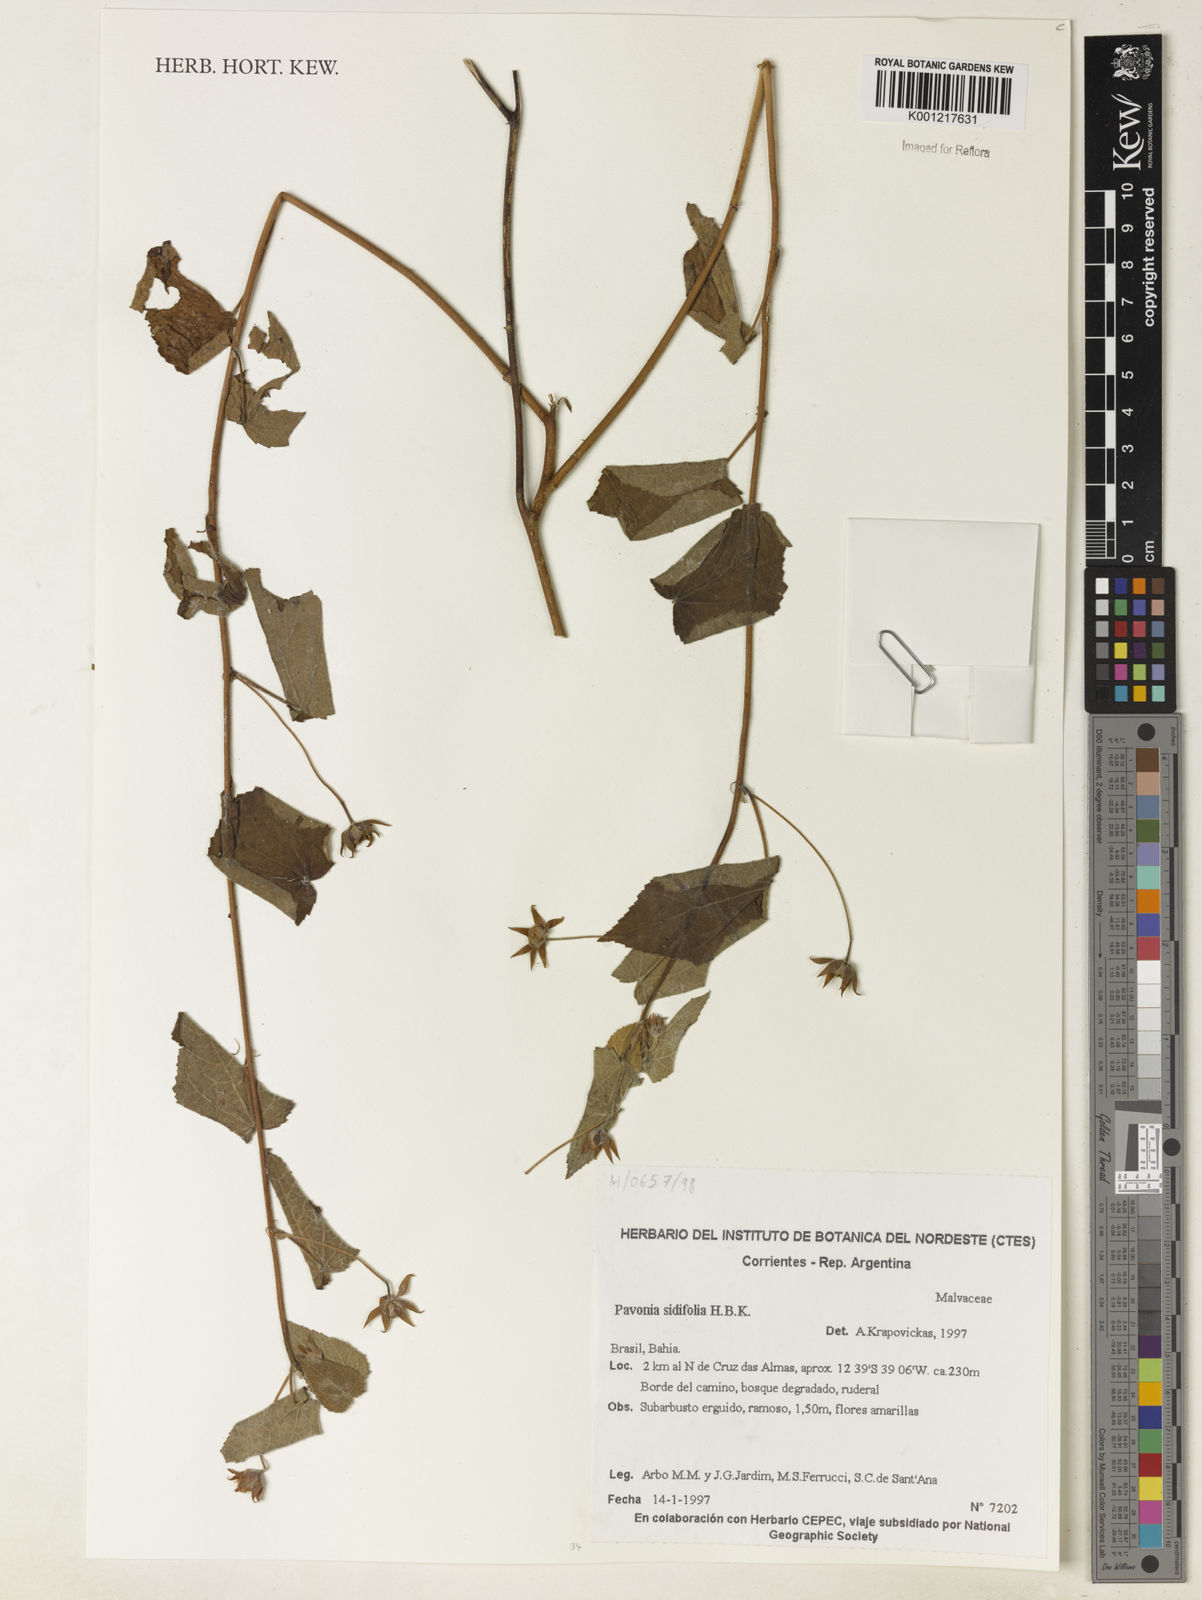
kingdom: Plantae
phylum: Tracheophyta
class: Magnoliopsida
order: Malvales
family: Malvaceae
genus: Pavonia
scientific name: Pavonia sidifolia
